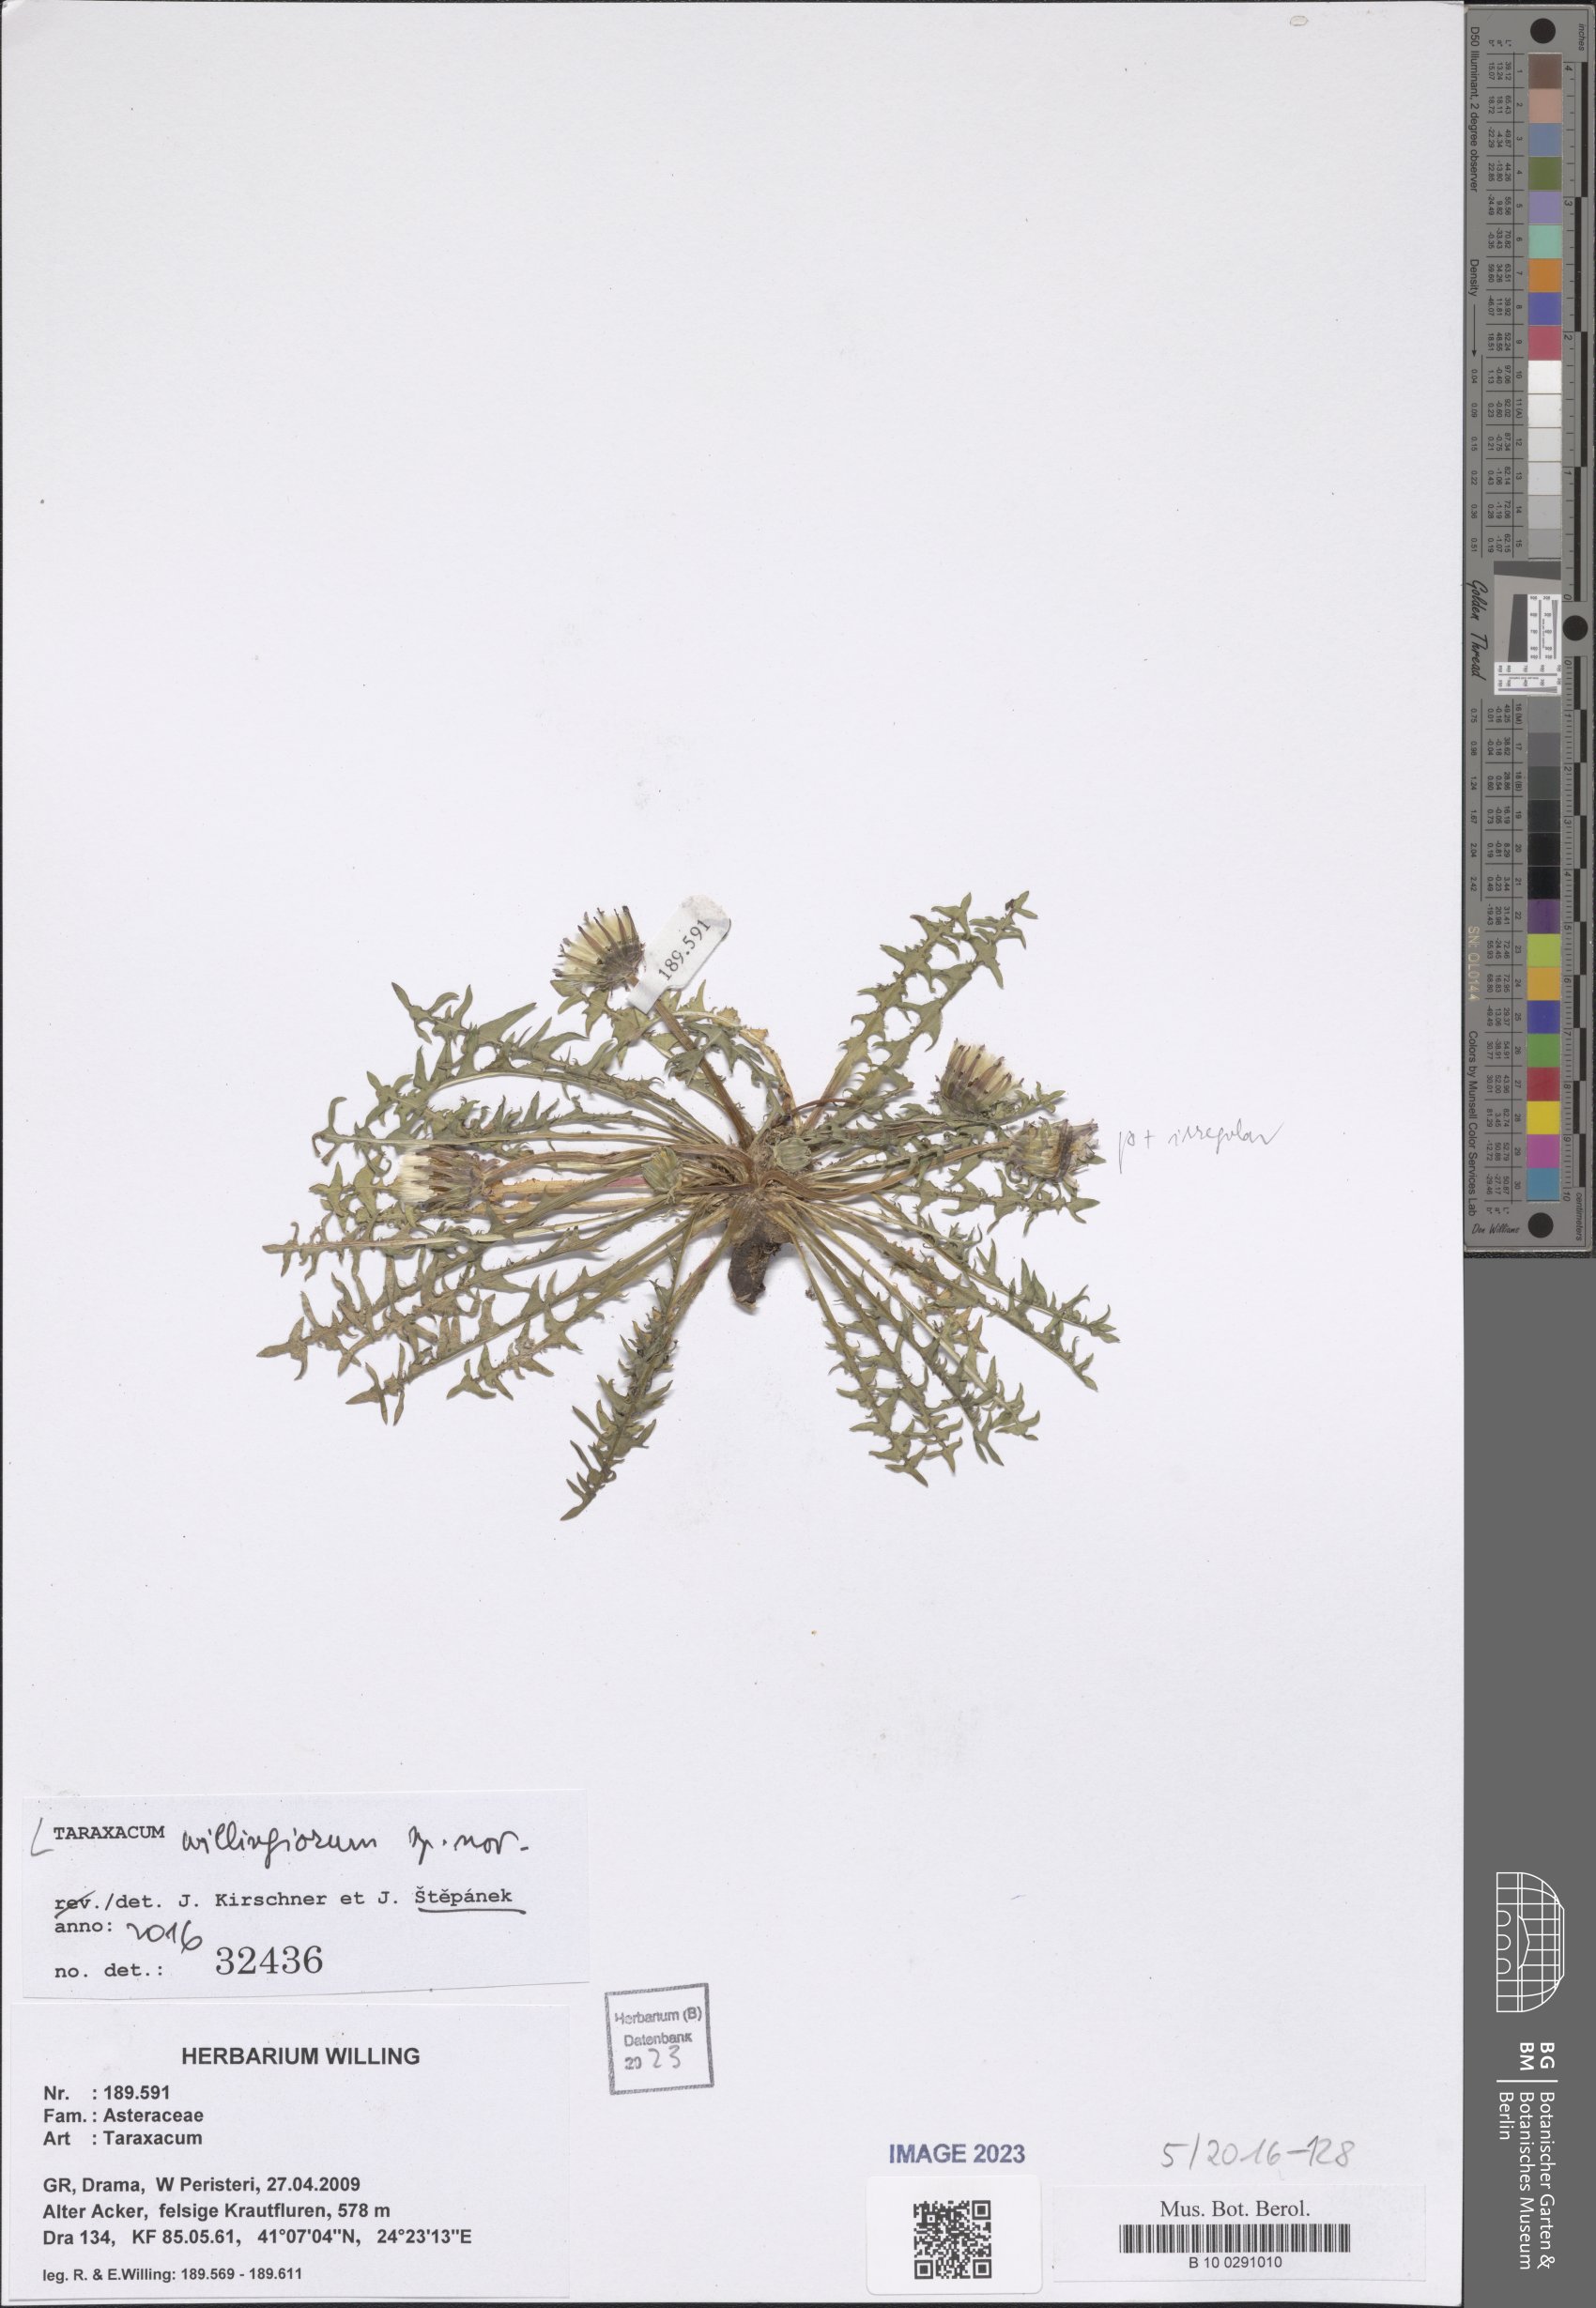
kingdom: Plantae
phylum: Tracheophyta
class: Magnoliopsida
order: Asterales
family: Asteraceae
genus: Taraxacum
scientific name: Taraxacum
